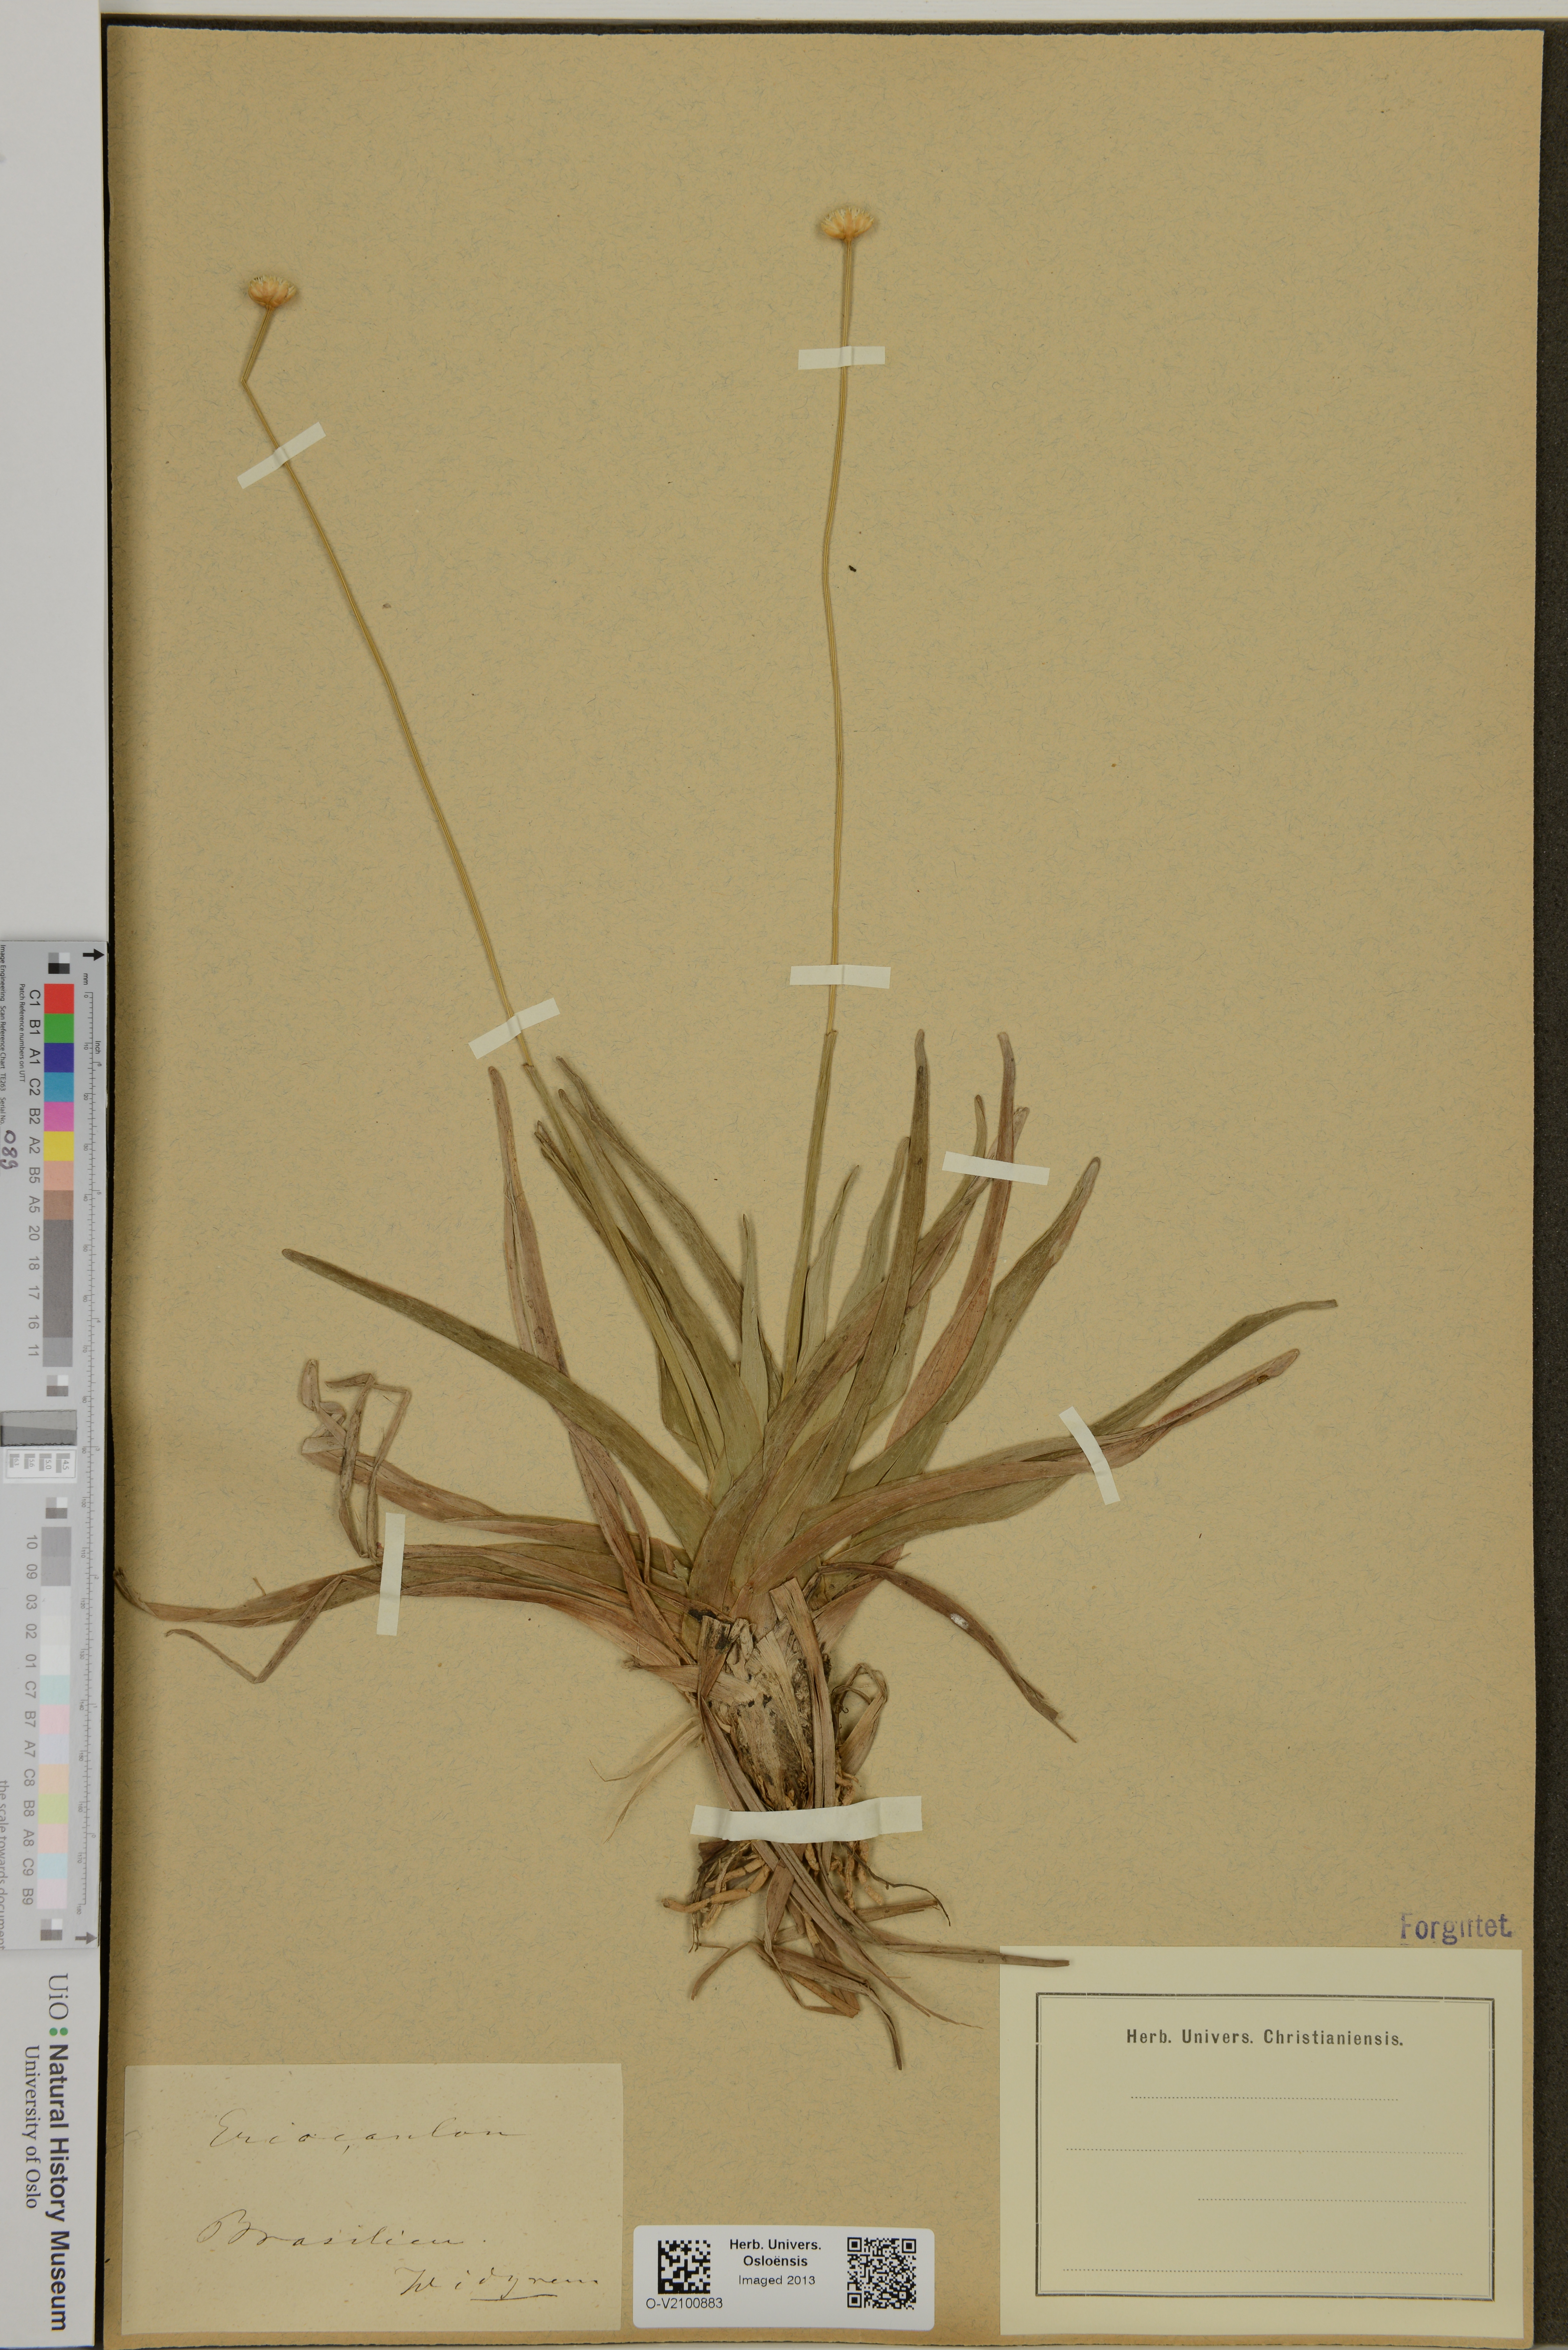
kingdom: Plantae
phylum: Tracheophyta
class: Liliopsida
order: Poales
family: Eriocaulaceae
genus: Eriocaulon
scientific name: Eriocaulon
